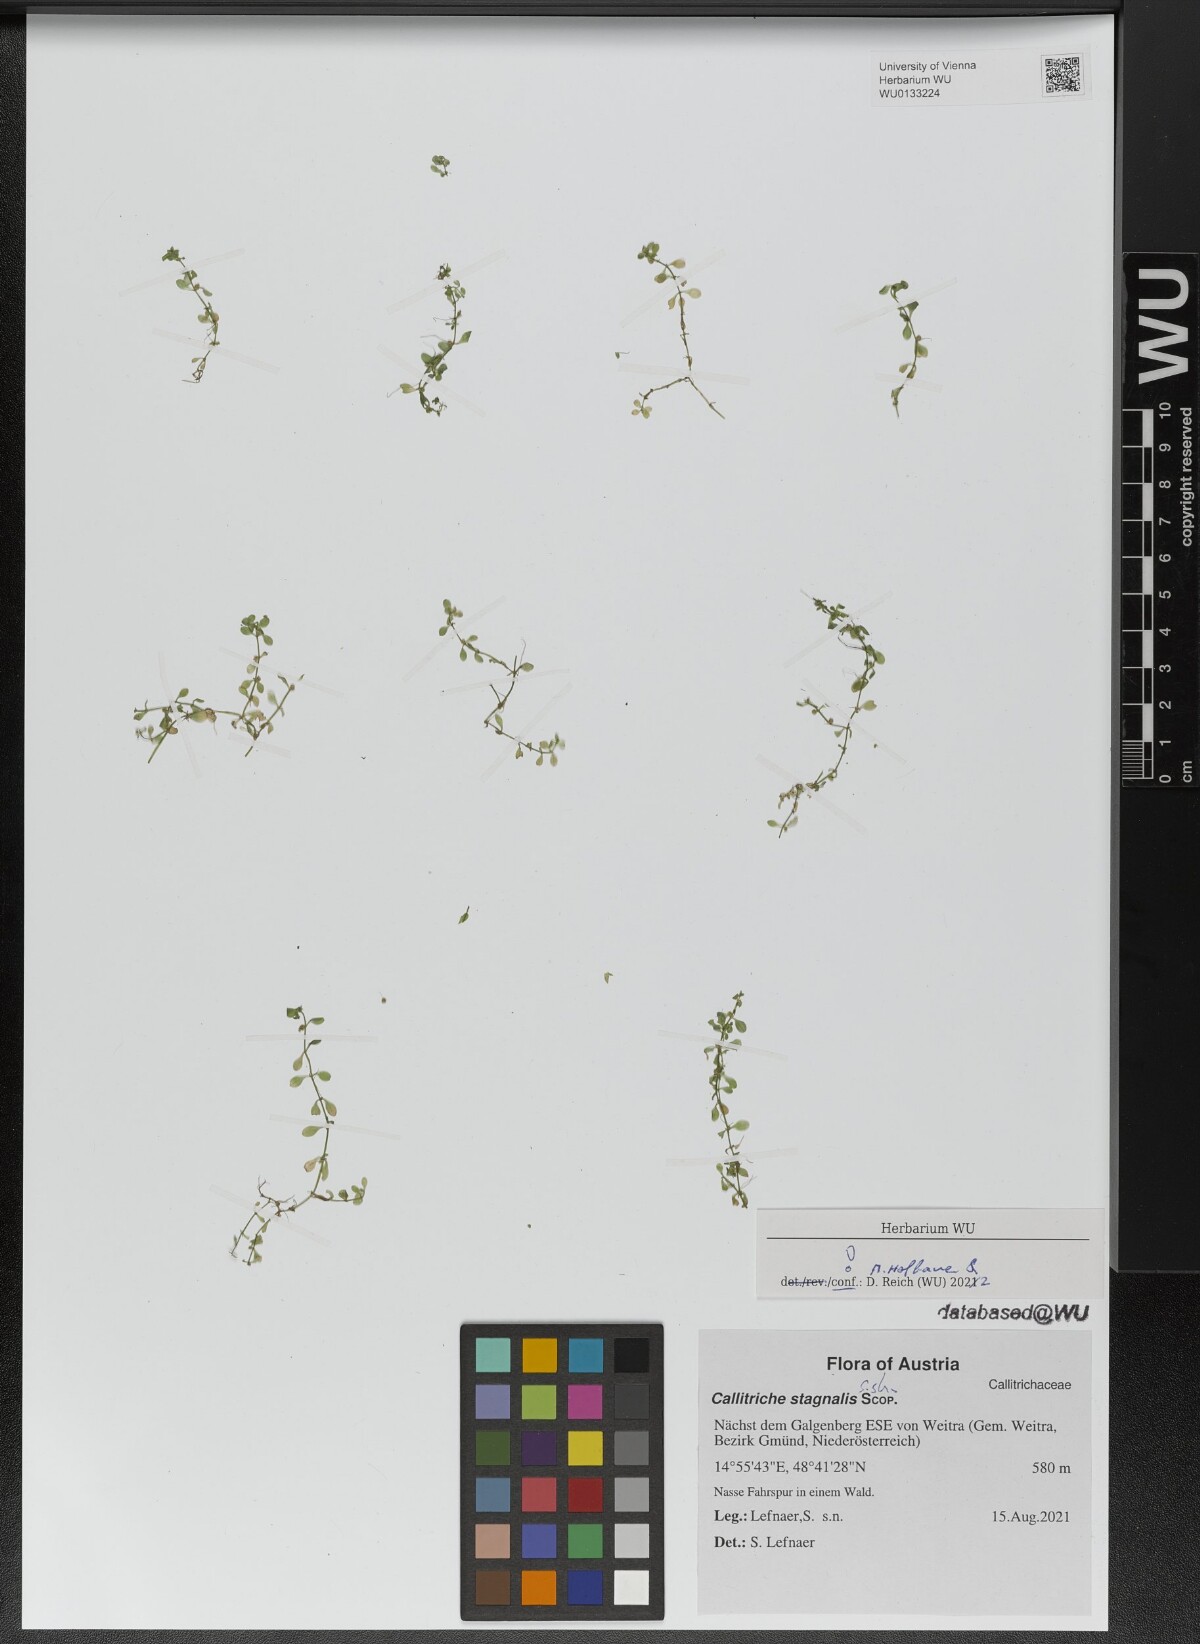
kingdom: Plantae
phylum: Tracheophyta
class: Magnoliopsida
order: Lamiales
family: Plantaginaceae
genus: Callitriche
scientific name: Callitriche stagnalis
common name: Common water-starwort
